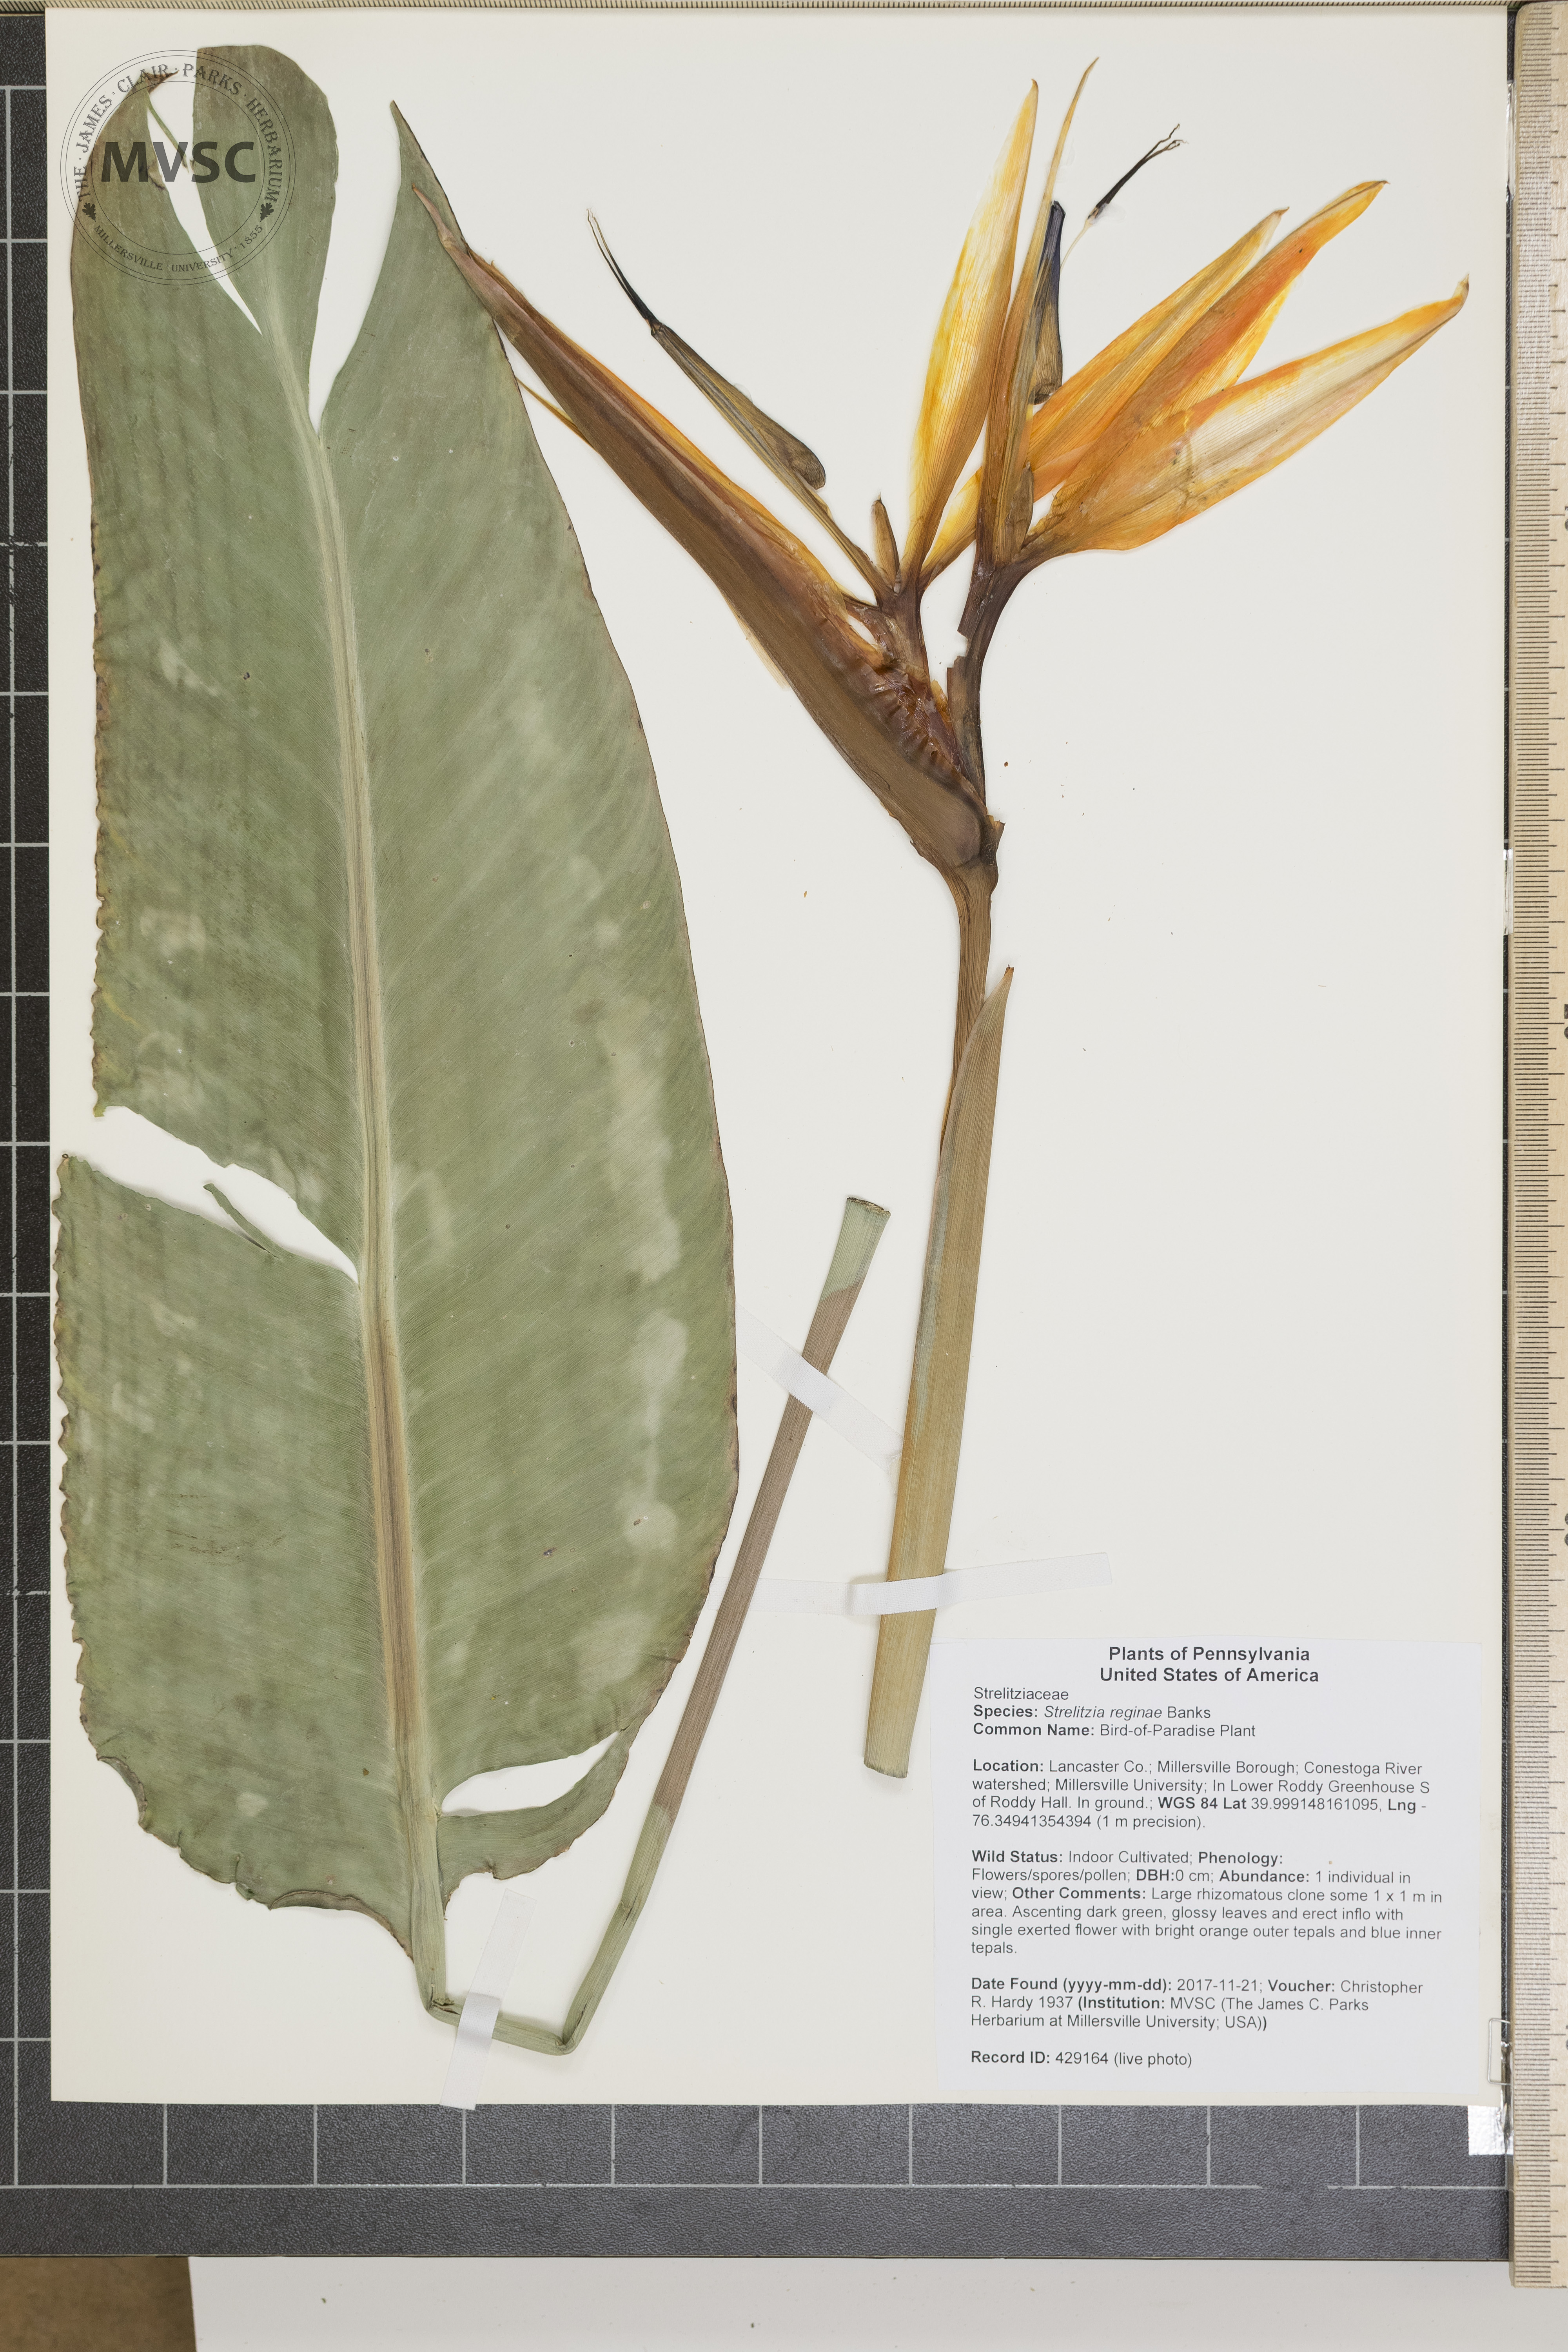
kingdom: Plantae
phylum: Tracheophyta
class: Liliopsida
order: Zingiberales
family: Strelitziaceae
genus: Strelitzia
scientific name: Strelitzia reginae
